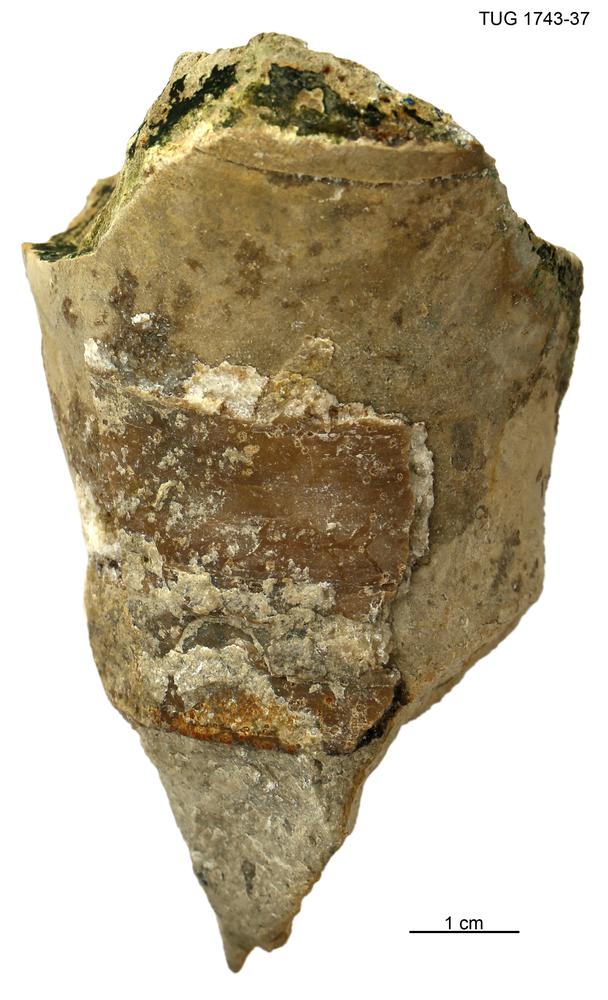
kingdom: Animalia
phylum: Mollusca
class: Cephalopoda
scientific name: Cephalopoda
